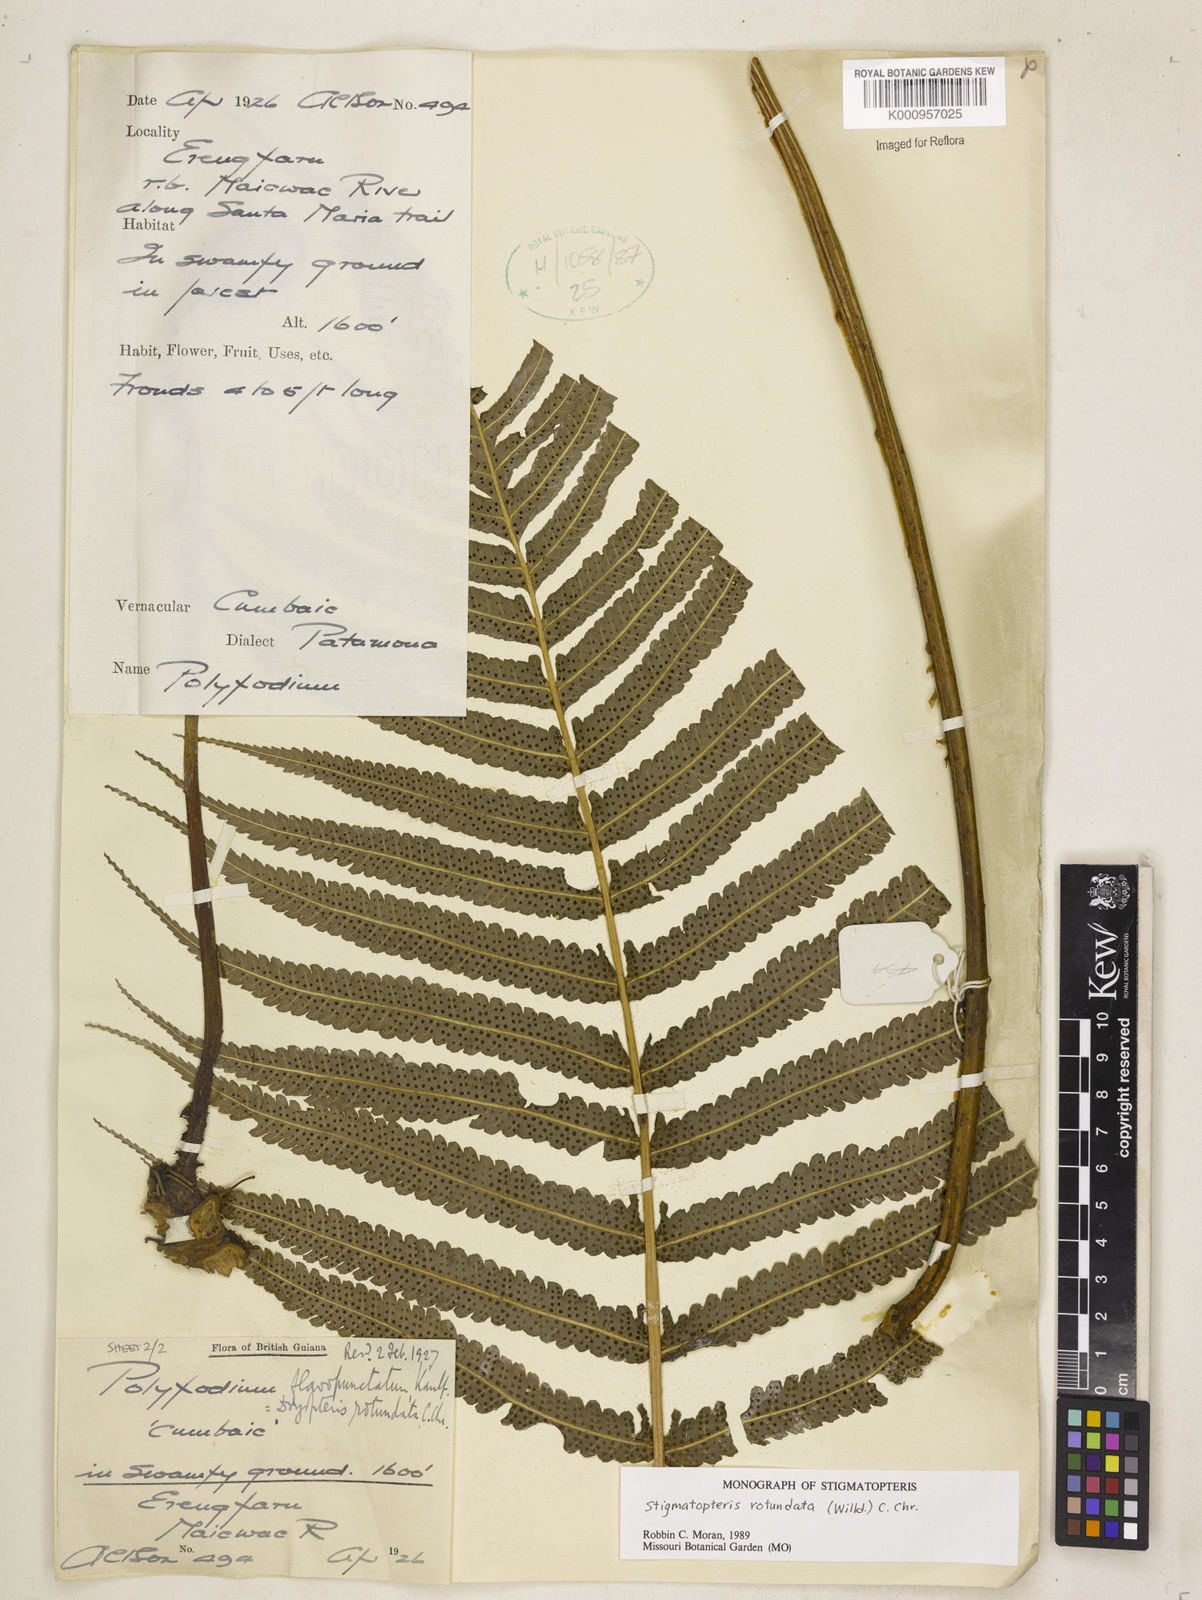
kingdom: Plantae
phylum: Tracheophyta
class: Polypodiopsida
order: Polypodiales
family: Dryopteridaceae
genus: Stigmatopteris
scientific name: Stigmatopteris rotundata
